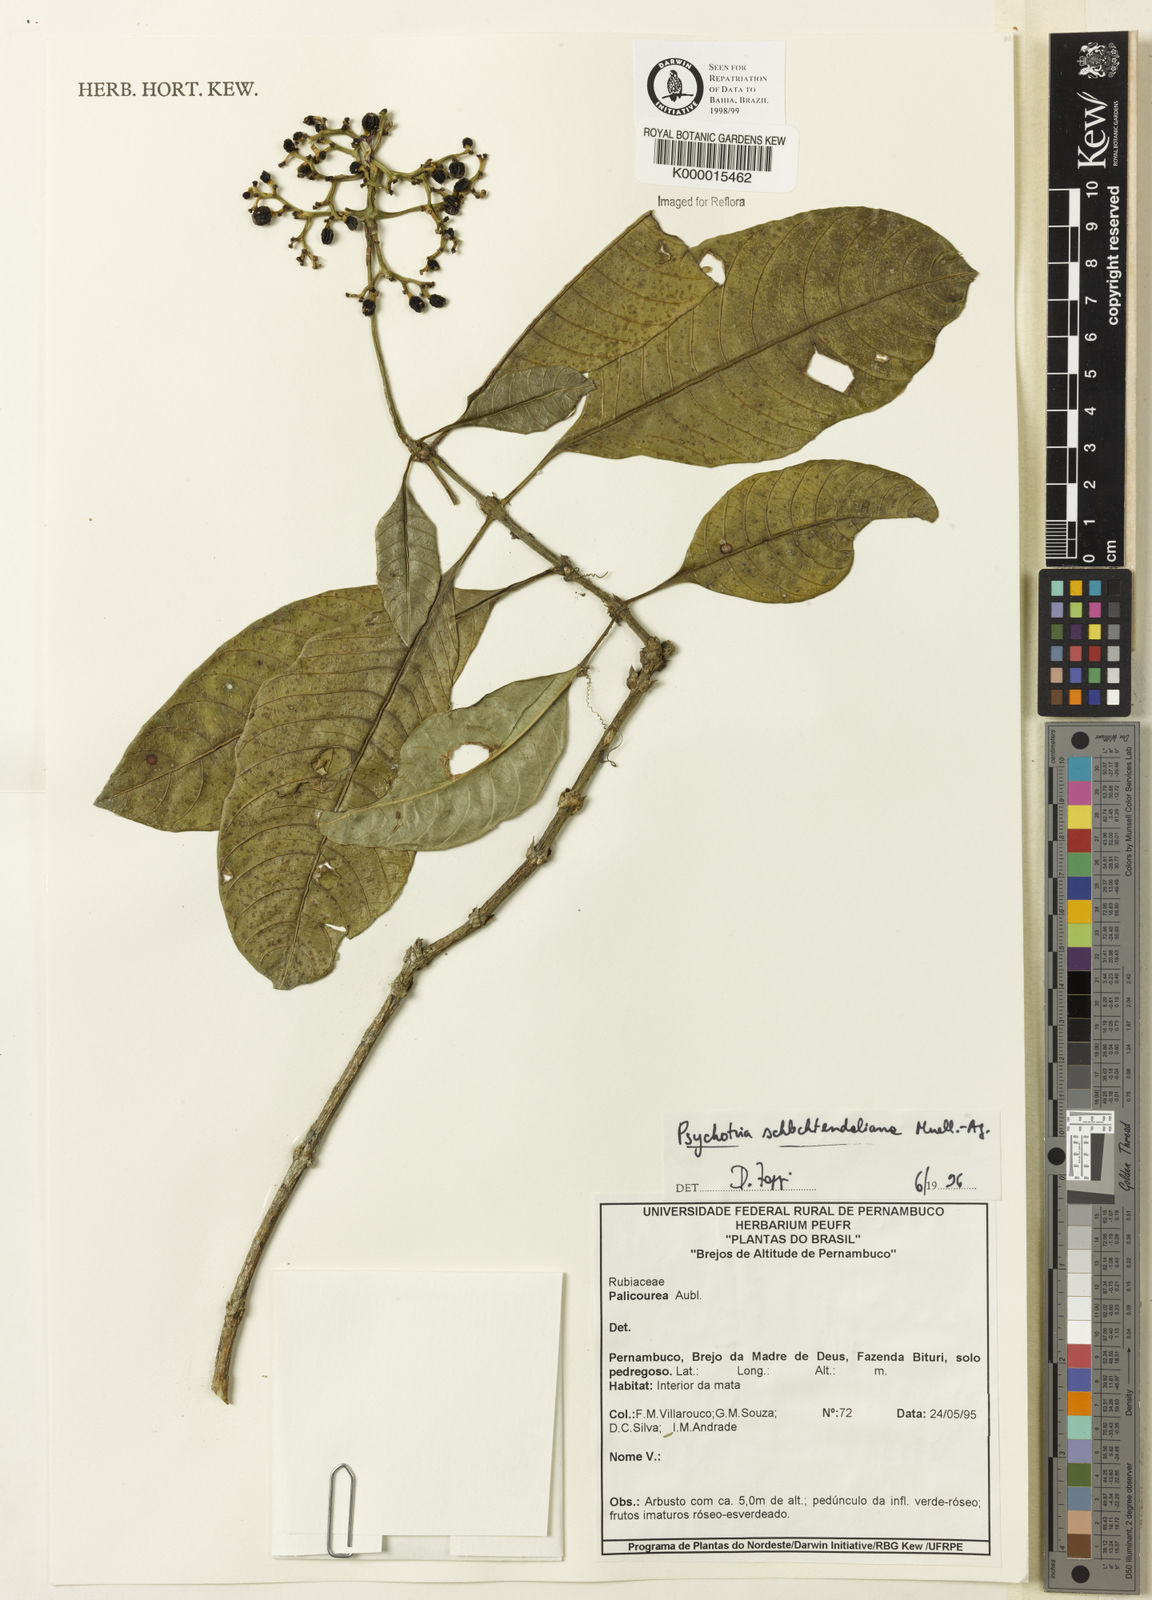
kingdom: Plantae
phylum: Tracheophyta
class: Magnoliopsida
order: Gentianales
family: Rubiaceae
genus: Palicourea
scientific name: Palicourea divaricata
